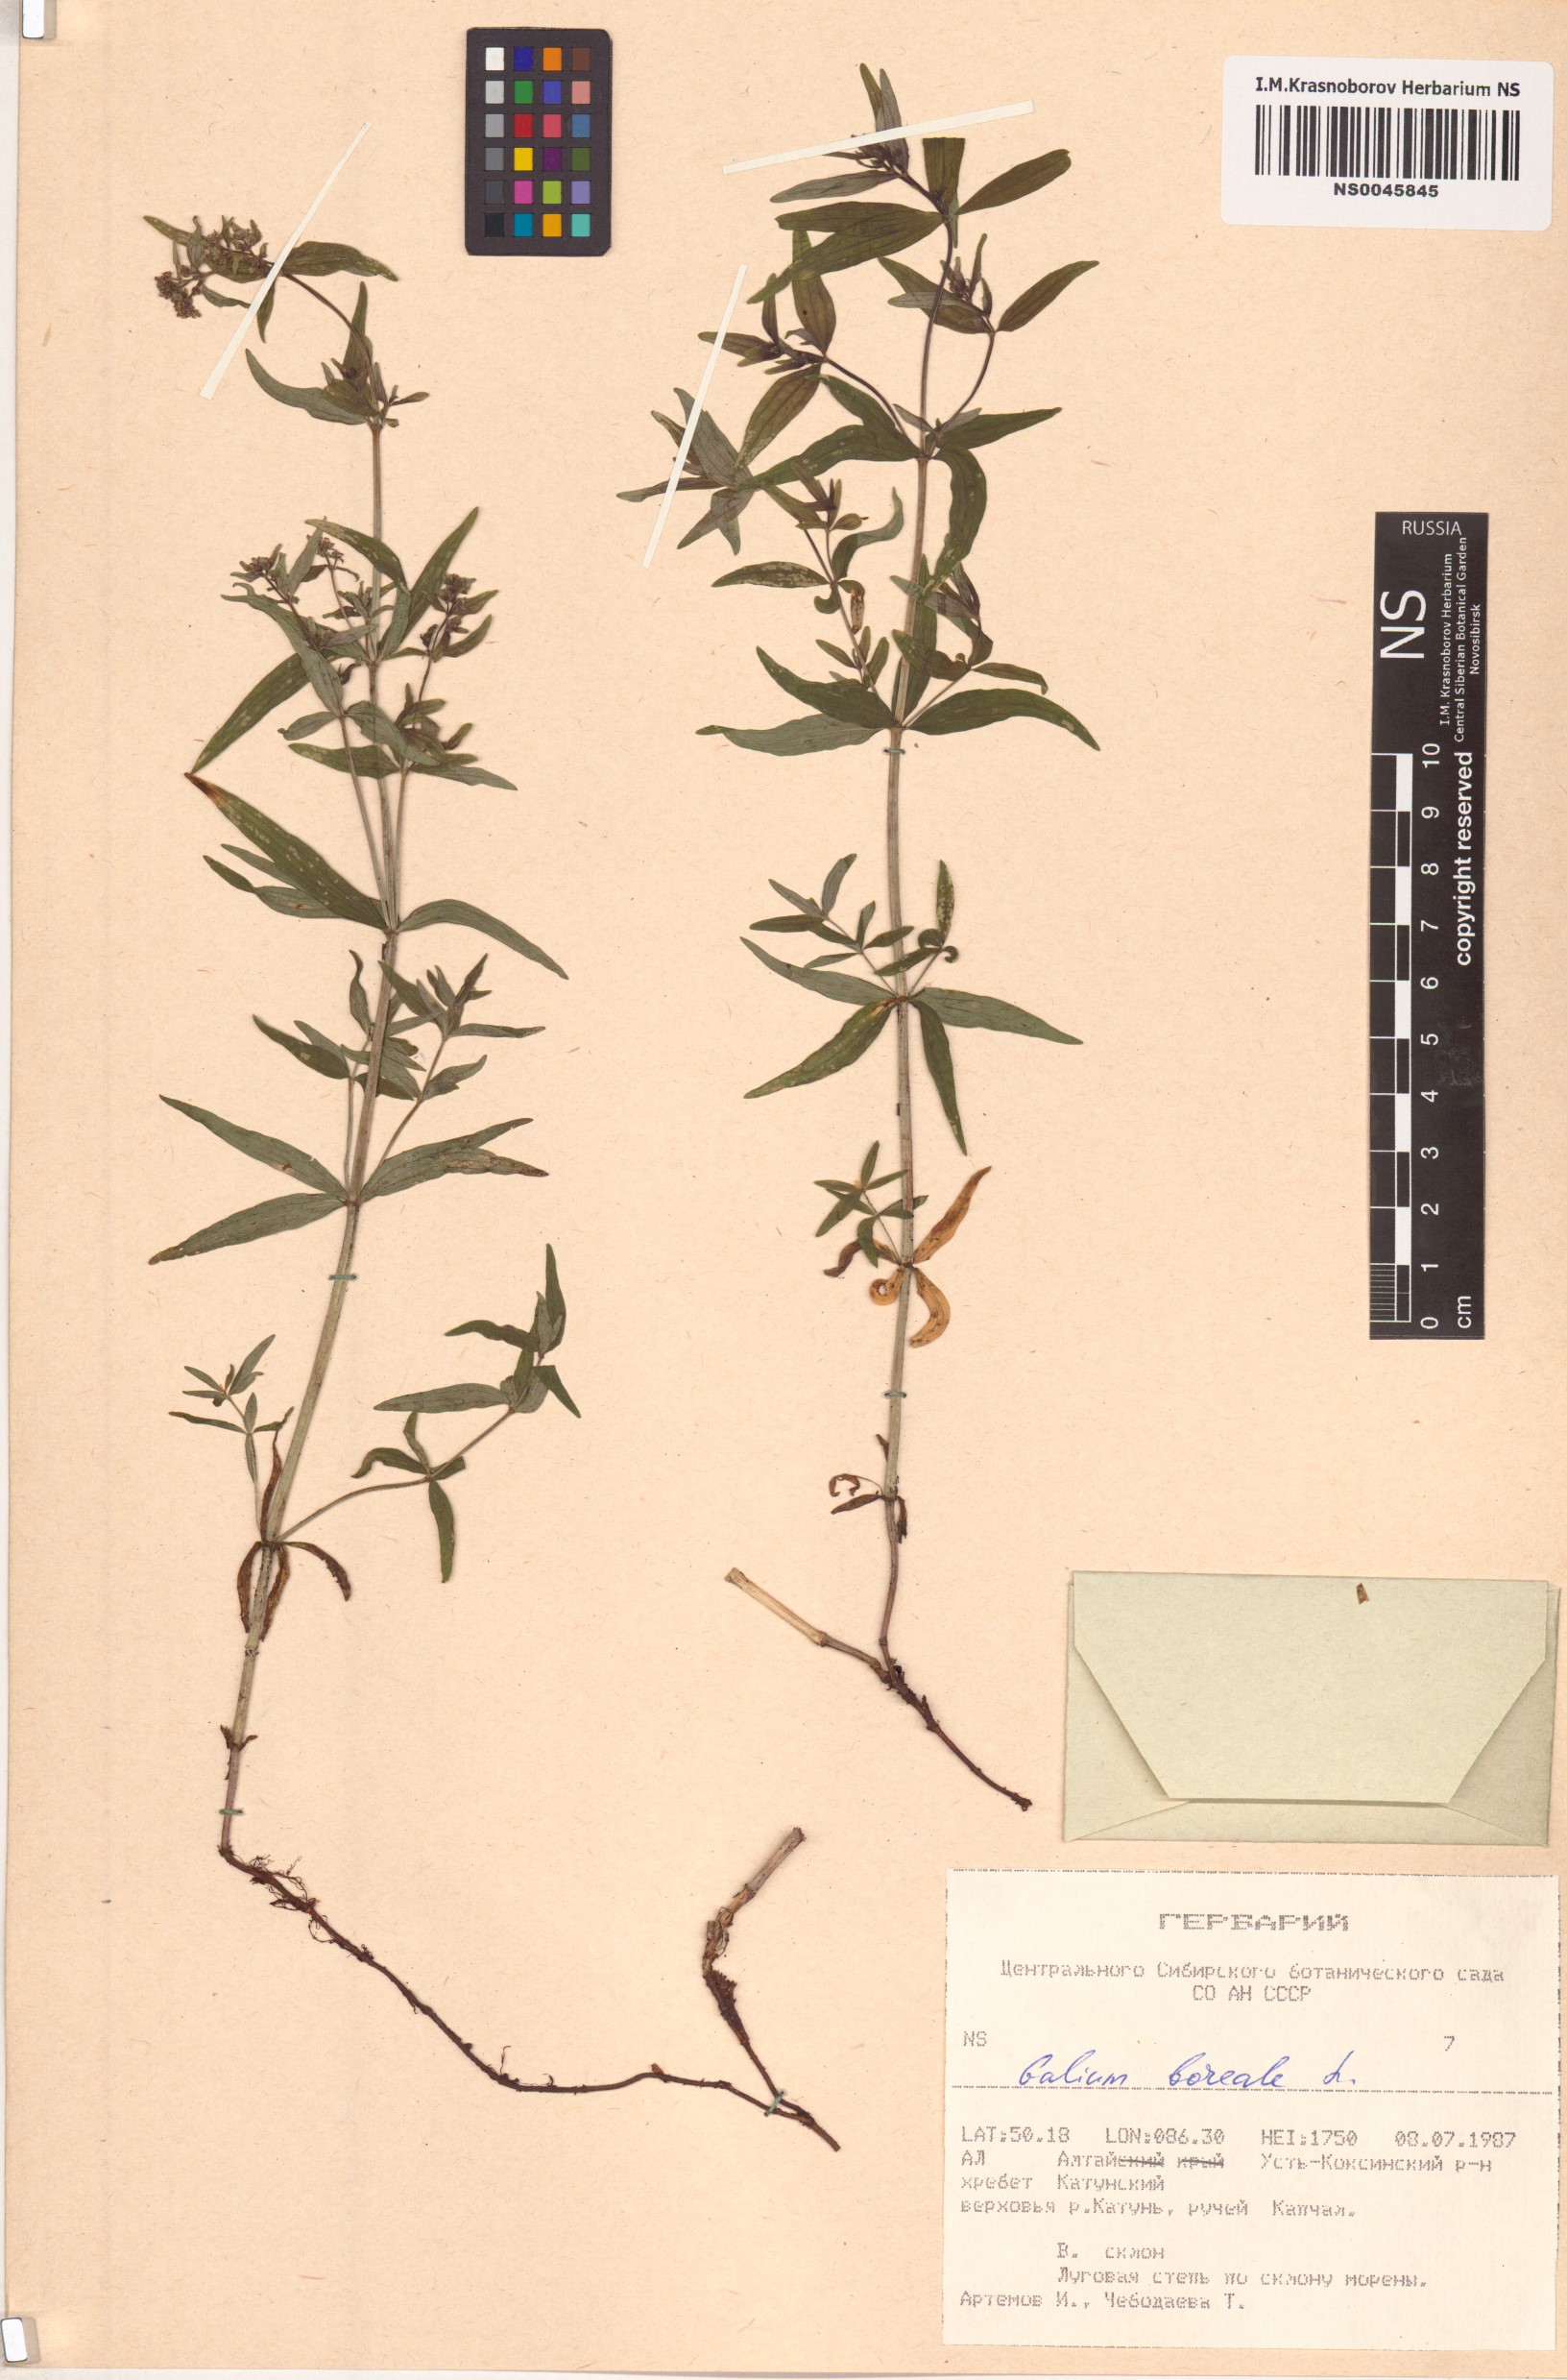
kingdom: Plantae
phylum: Tracheophyta
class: Magnoliopsida
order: Gentianales
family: Rubiaceae
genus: Galium
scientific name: Galium boreale
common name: Northern bedstraw
